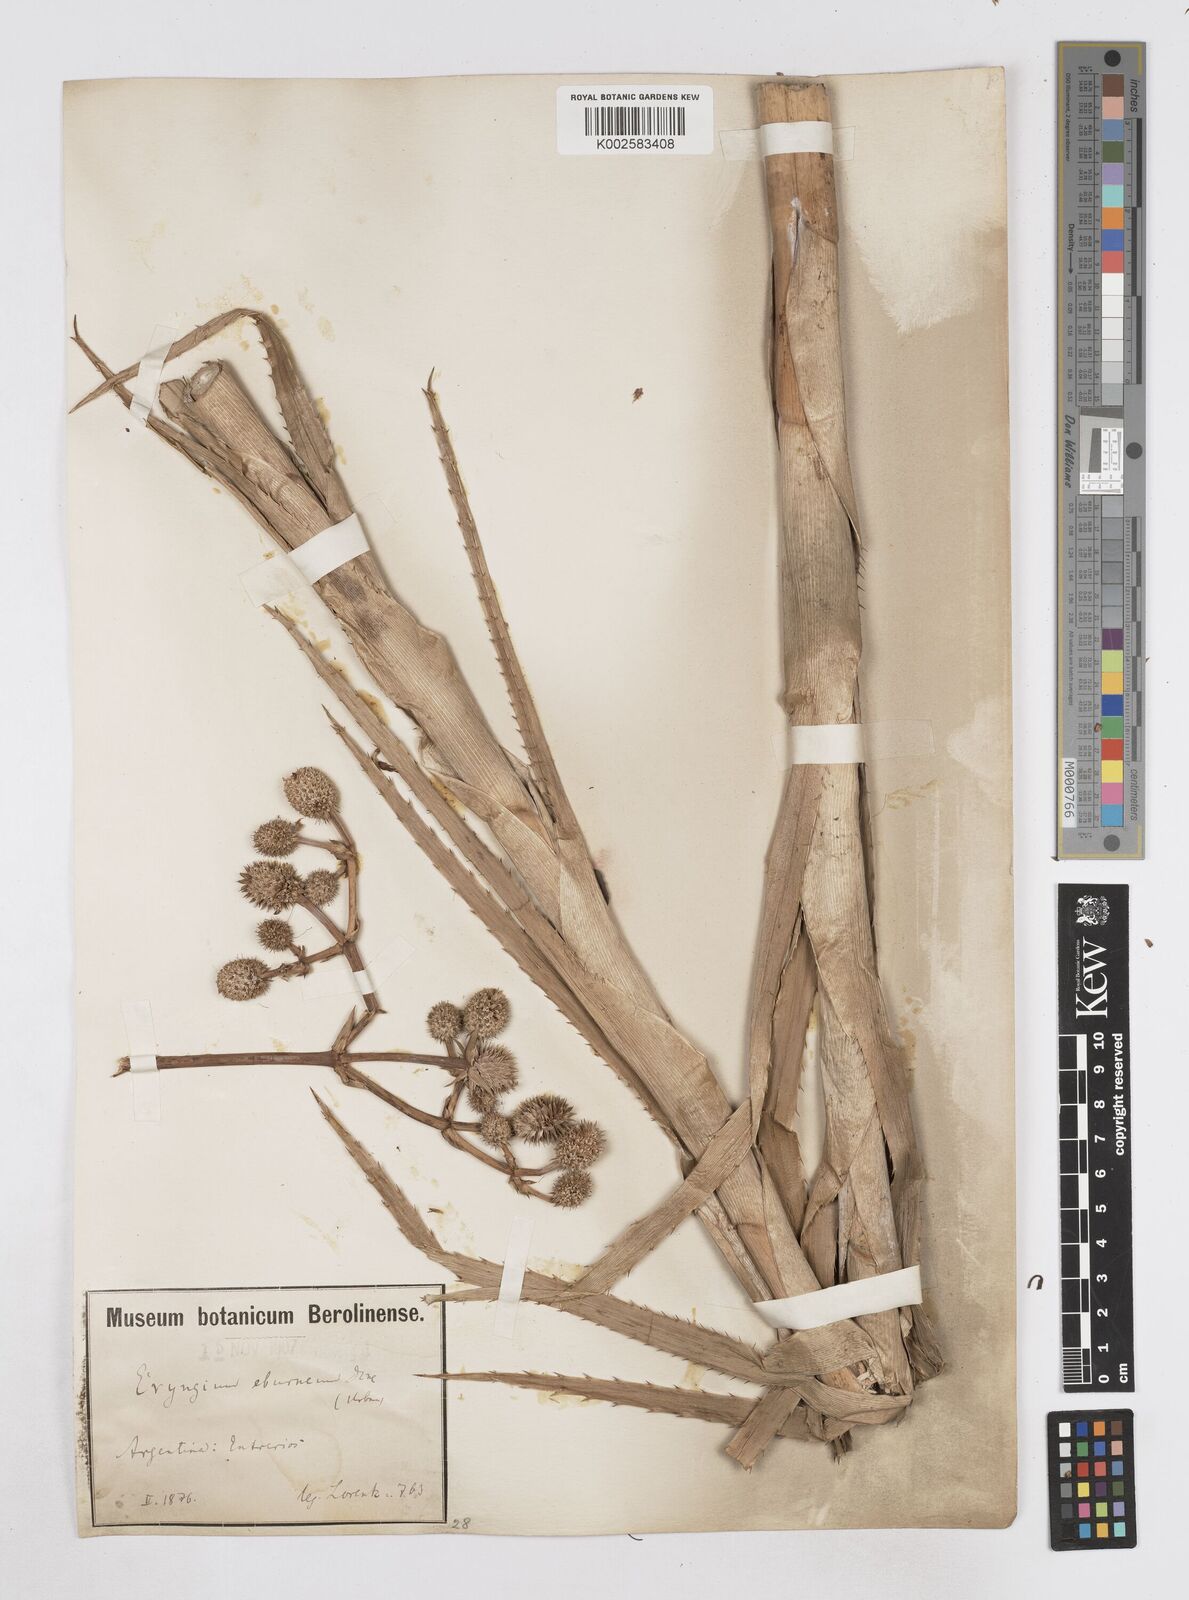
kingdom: Plantae
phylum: Tracheophyta
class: Magnoliopsida
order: Apiales
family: Apiaceae
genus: Eryngium
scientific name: Eryngium eburneum
